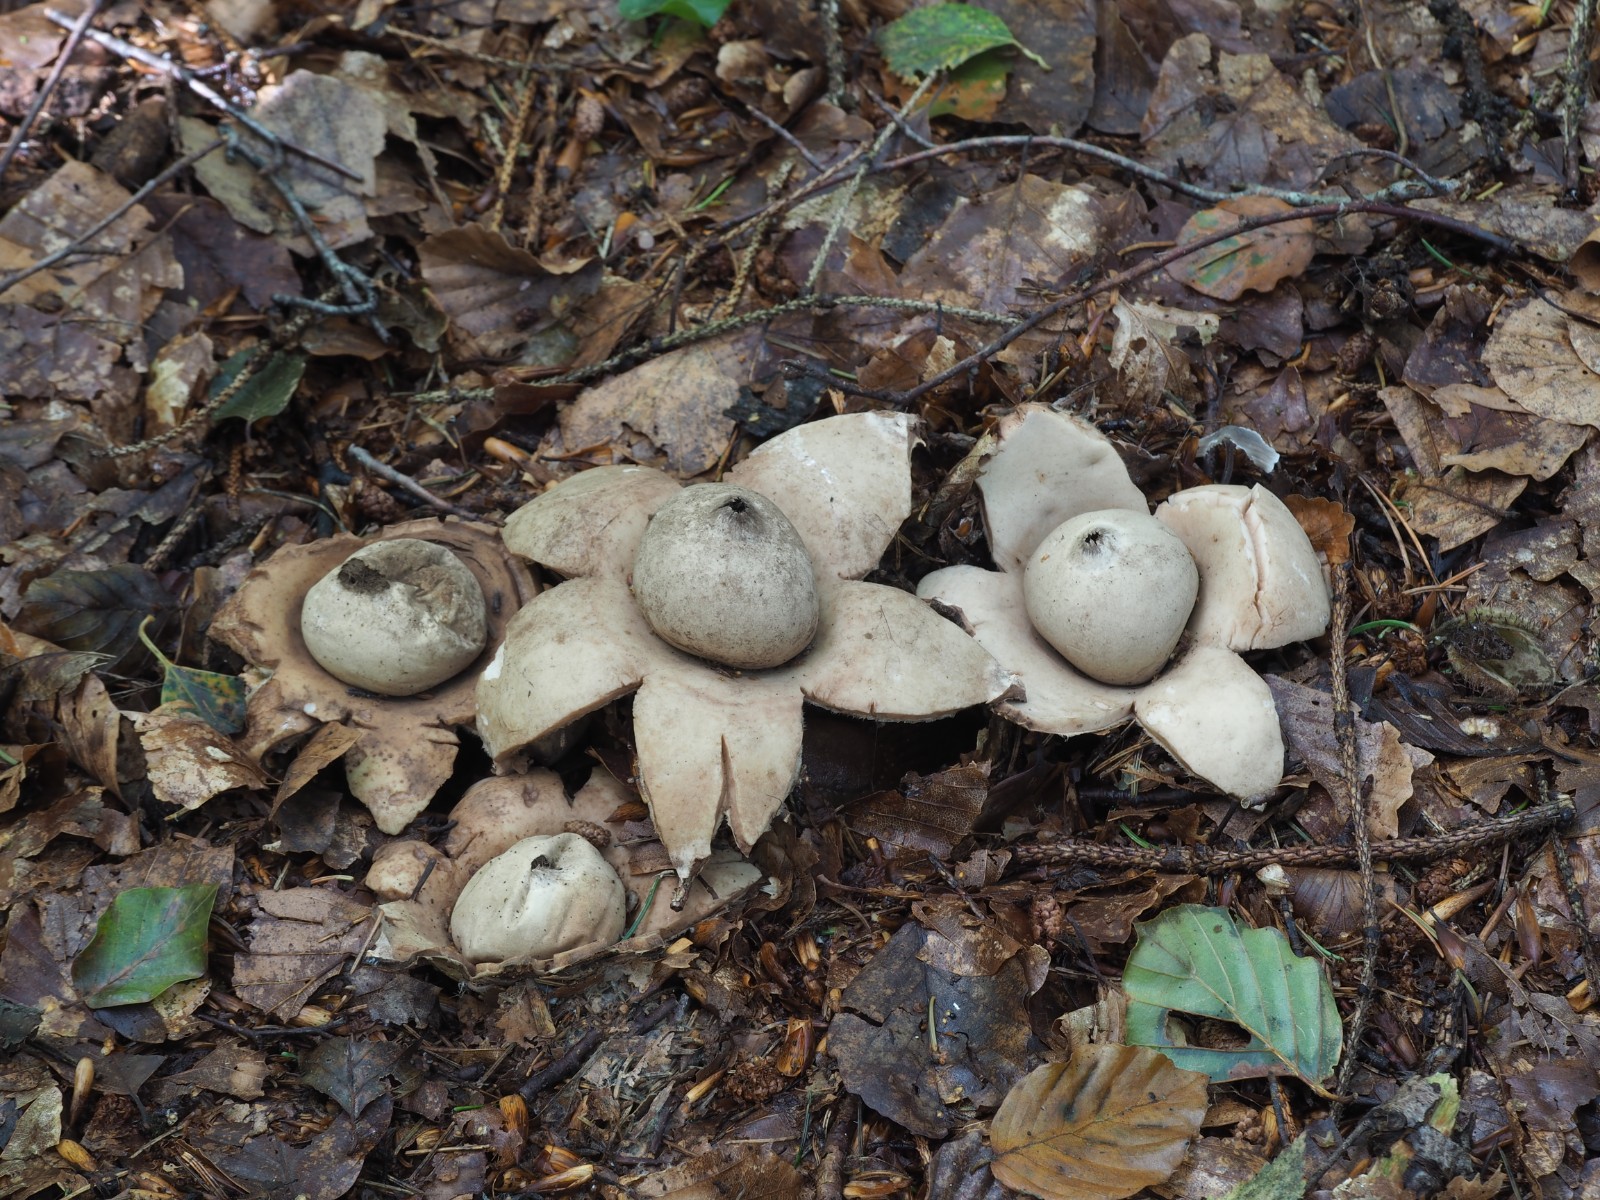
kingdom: Fungi
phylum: Basidiomycota
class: Agaricomycetes
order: Geastrales
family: Geastraceae
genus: Geastrum
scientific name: Geastrum michelianum
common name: kødet stjernebold
